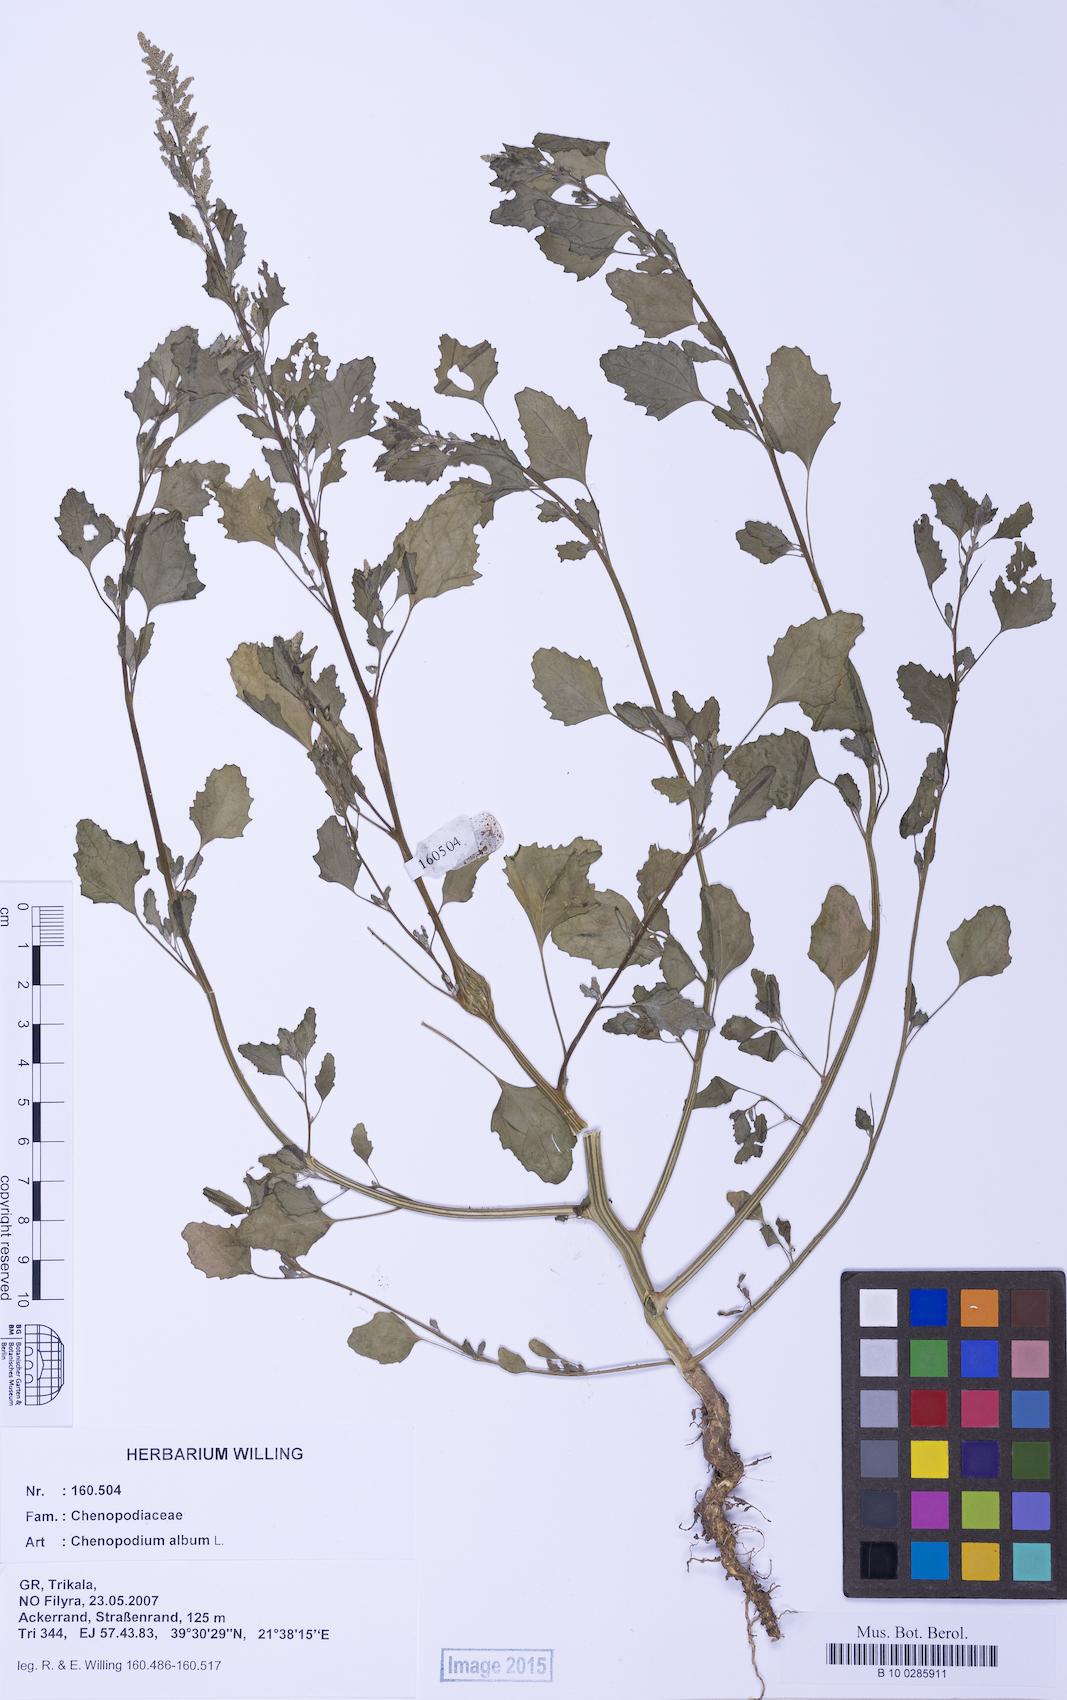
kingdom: Plantae
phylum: Tracheophyta
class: Magnoliopsida
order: Caryophyllales
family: Amaranthaceae
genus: Chenopodium
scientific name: Chenopodium album
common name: Fat-hen
